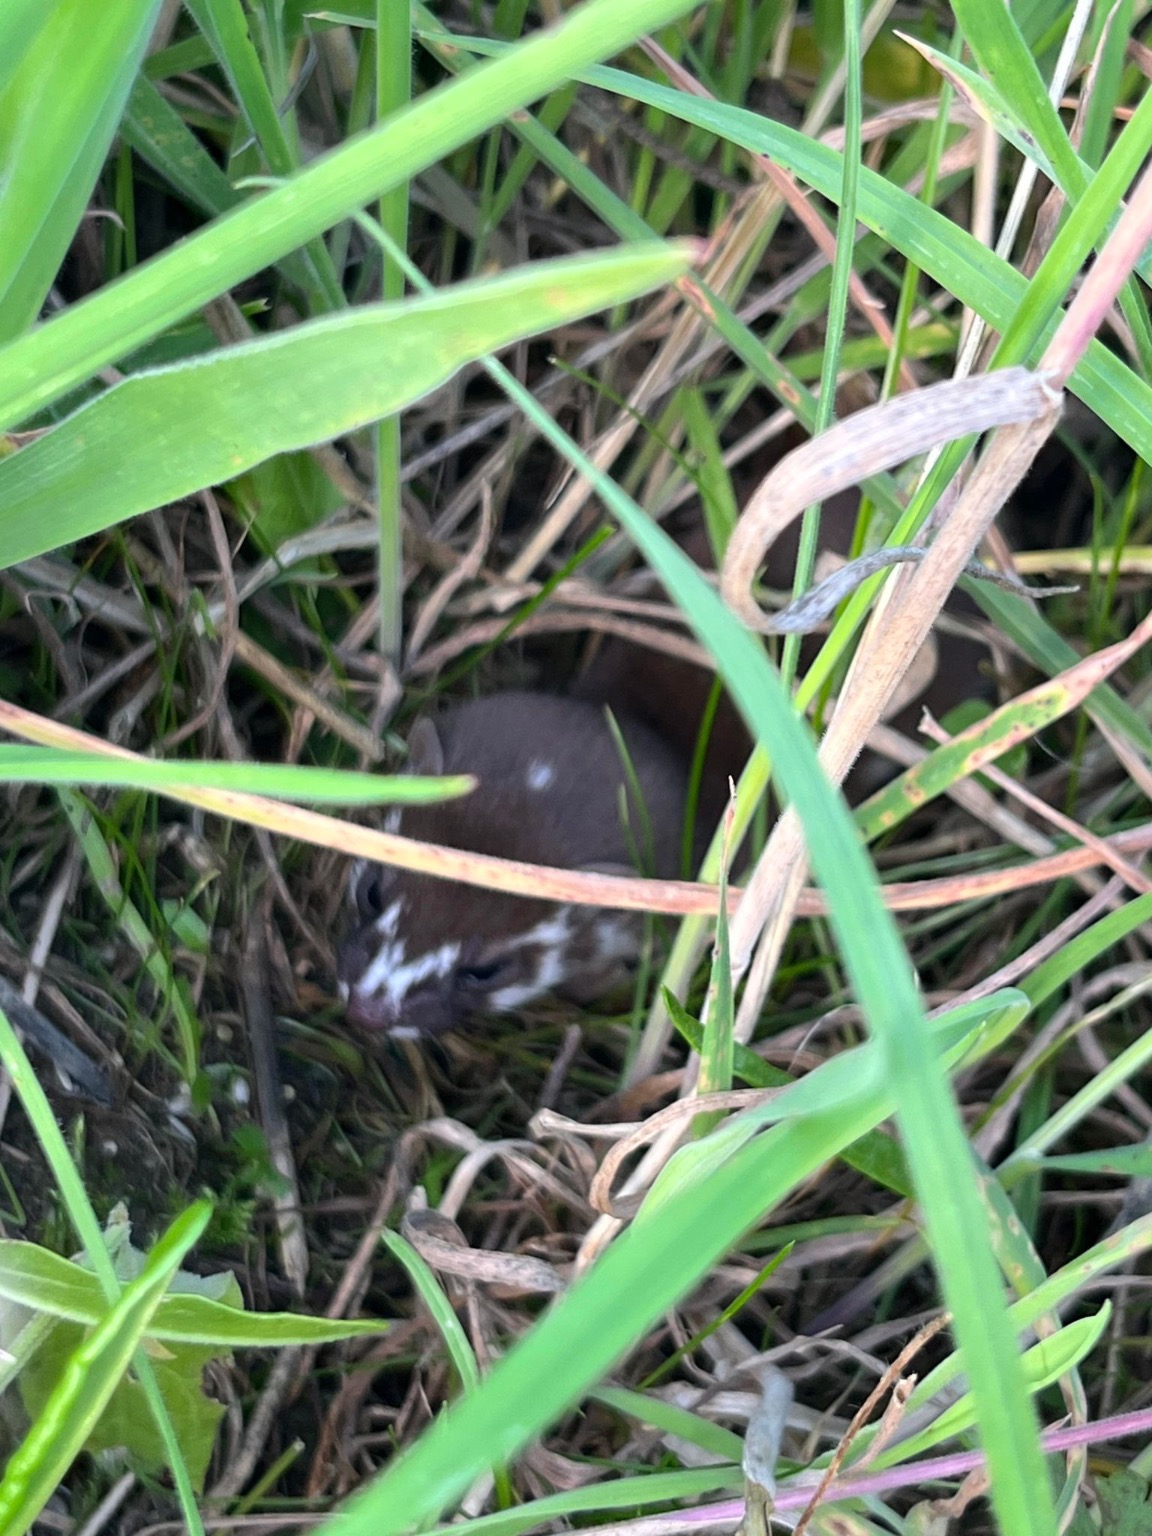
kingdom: Animalia
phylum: Chordata
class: Mammalia
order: Carnivora
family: Mustelidae
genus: Mustela
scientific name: Mustela nivalis
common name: Brud
